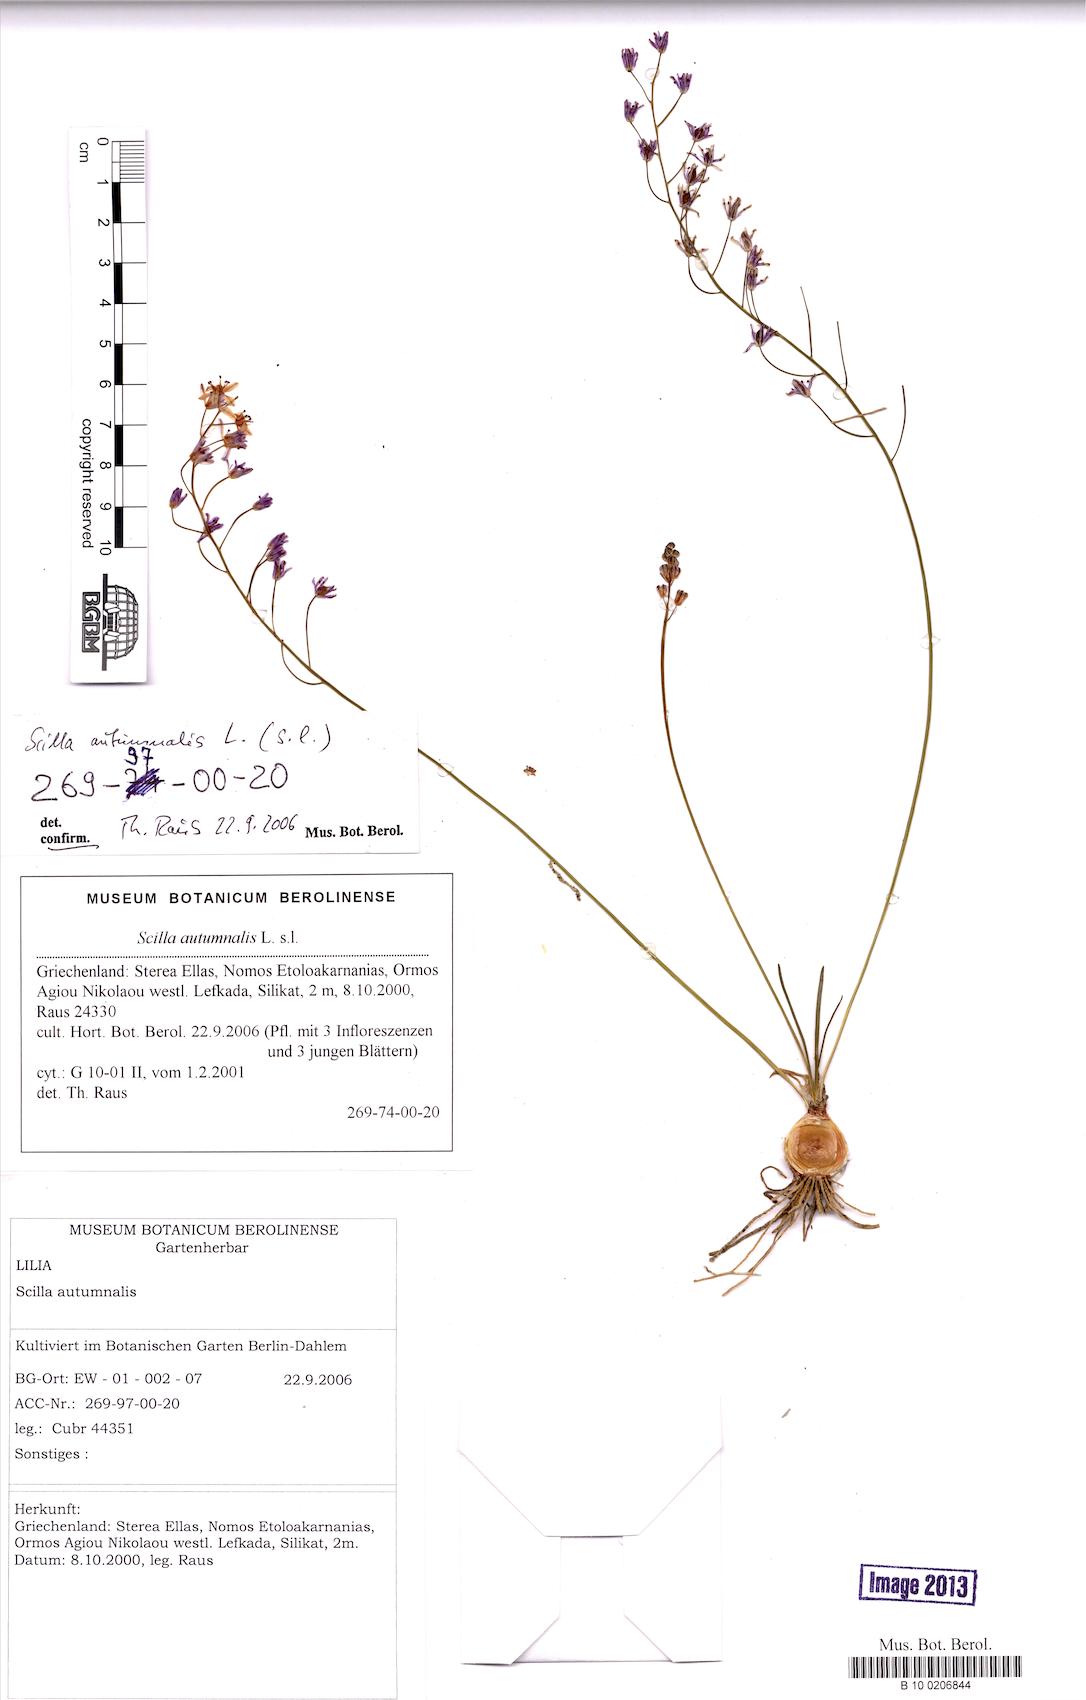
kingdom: Plantae
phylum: Tracheophyta
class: Liliopsida
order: Asparagales
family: Asparagaceae
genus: Prospero
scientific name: Prospero autumnale
